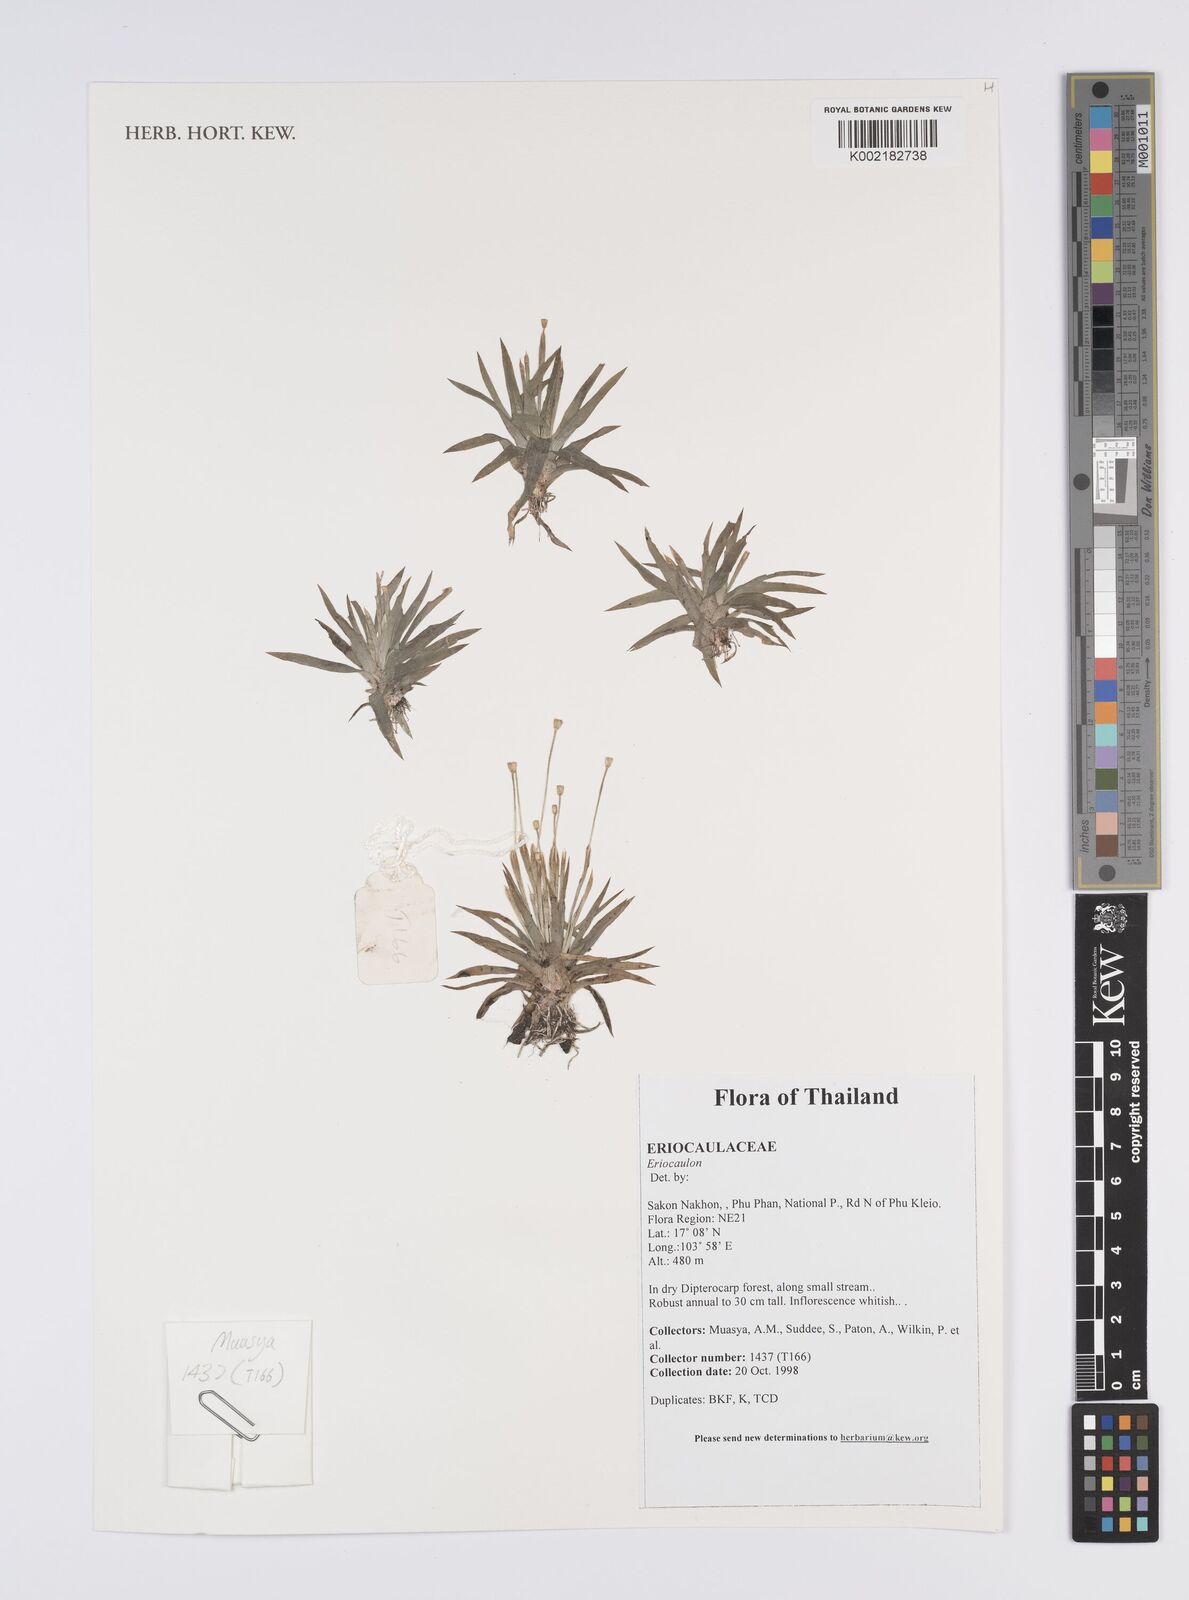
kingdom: Plantae
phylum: Tracheophyta
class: Liliopsida
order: Poales
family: Eriocaulaceae
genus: Eriocaulon
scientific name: Eriocaulon
